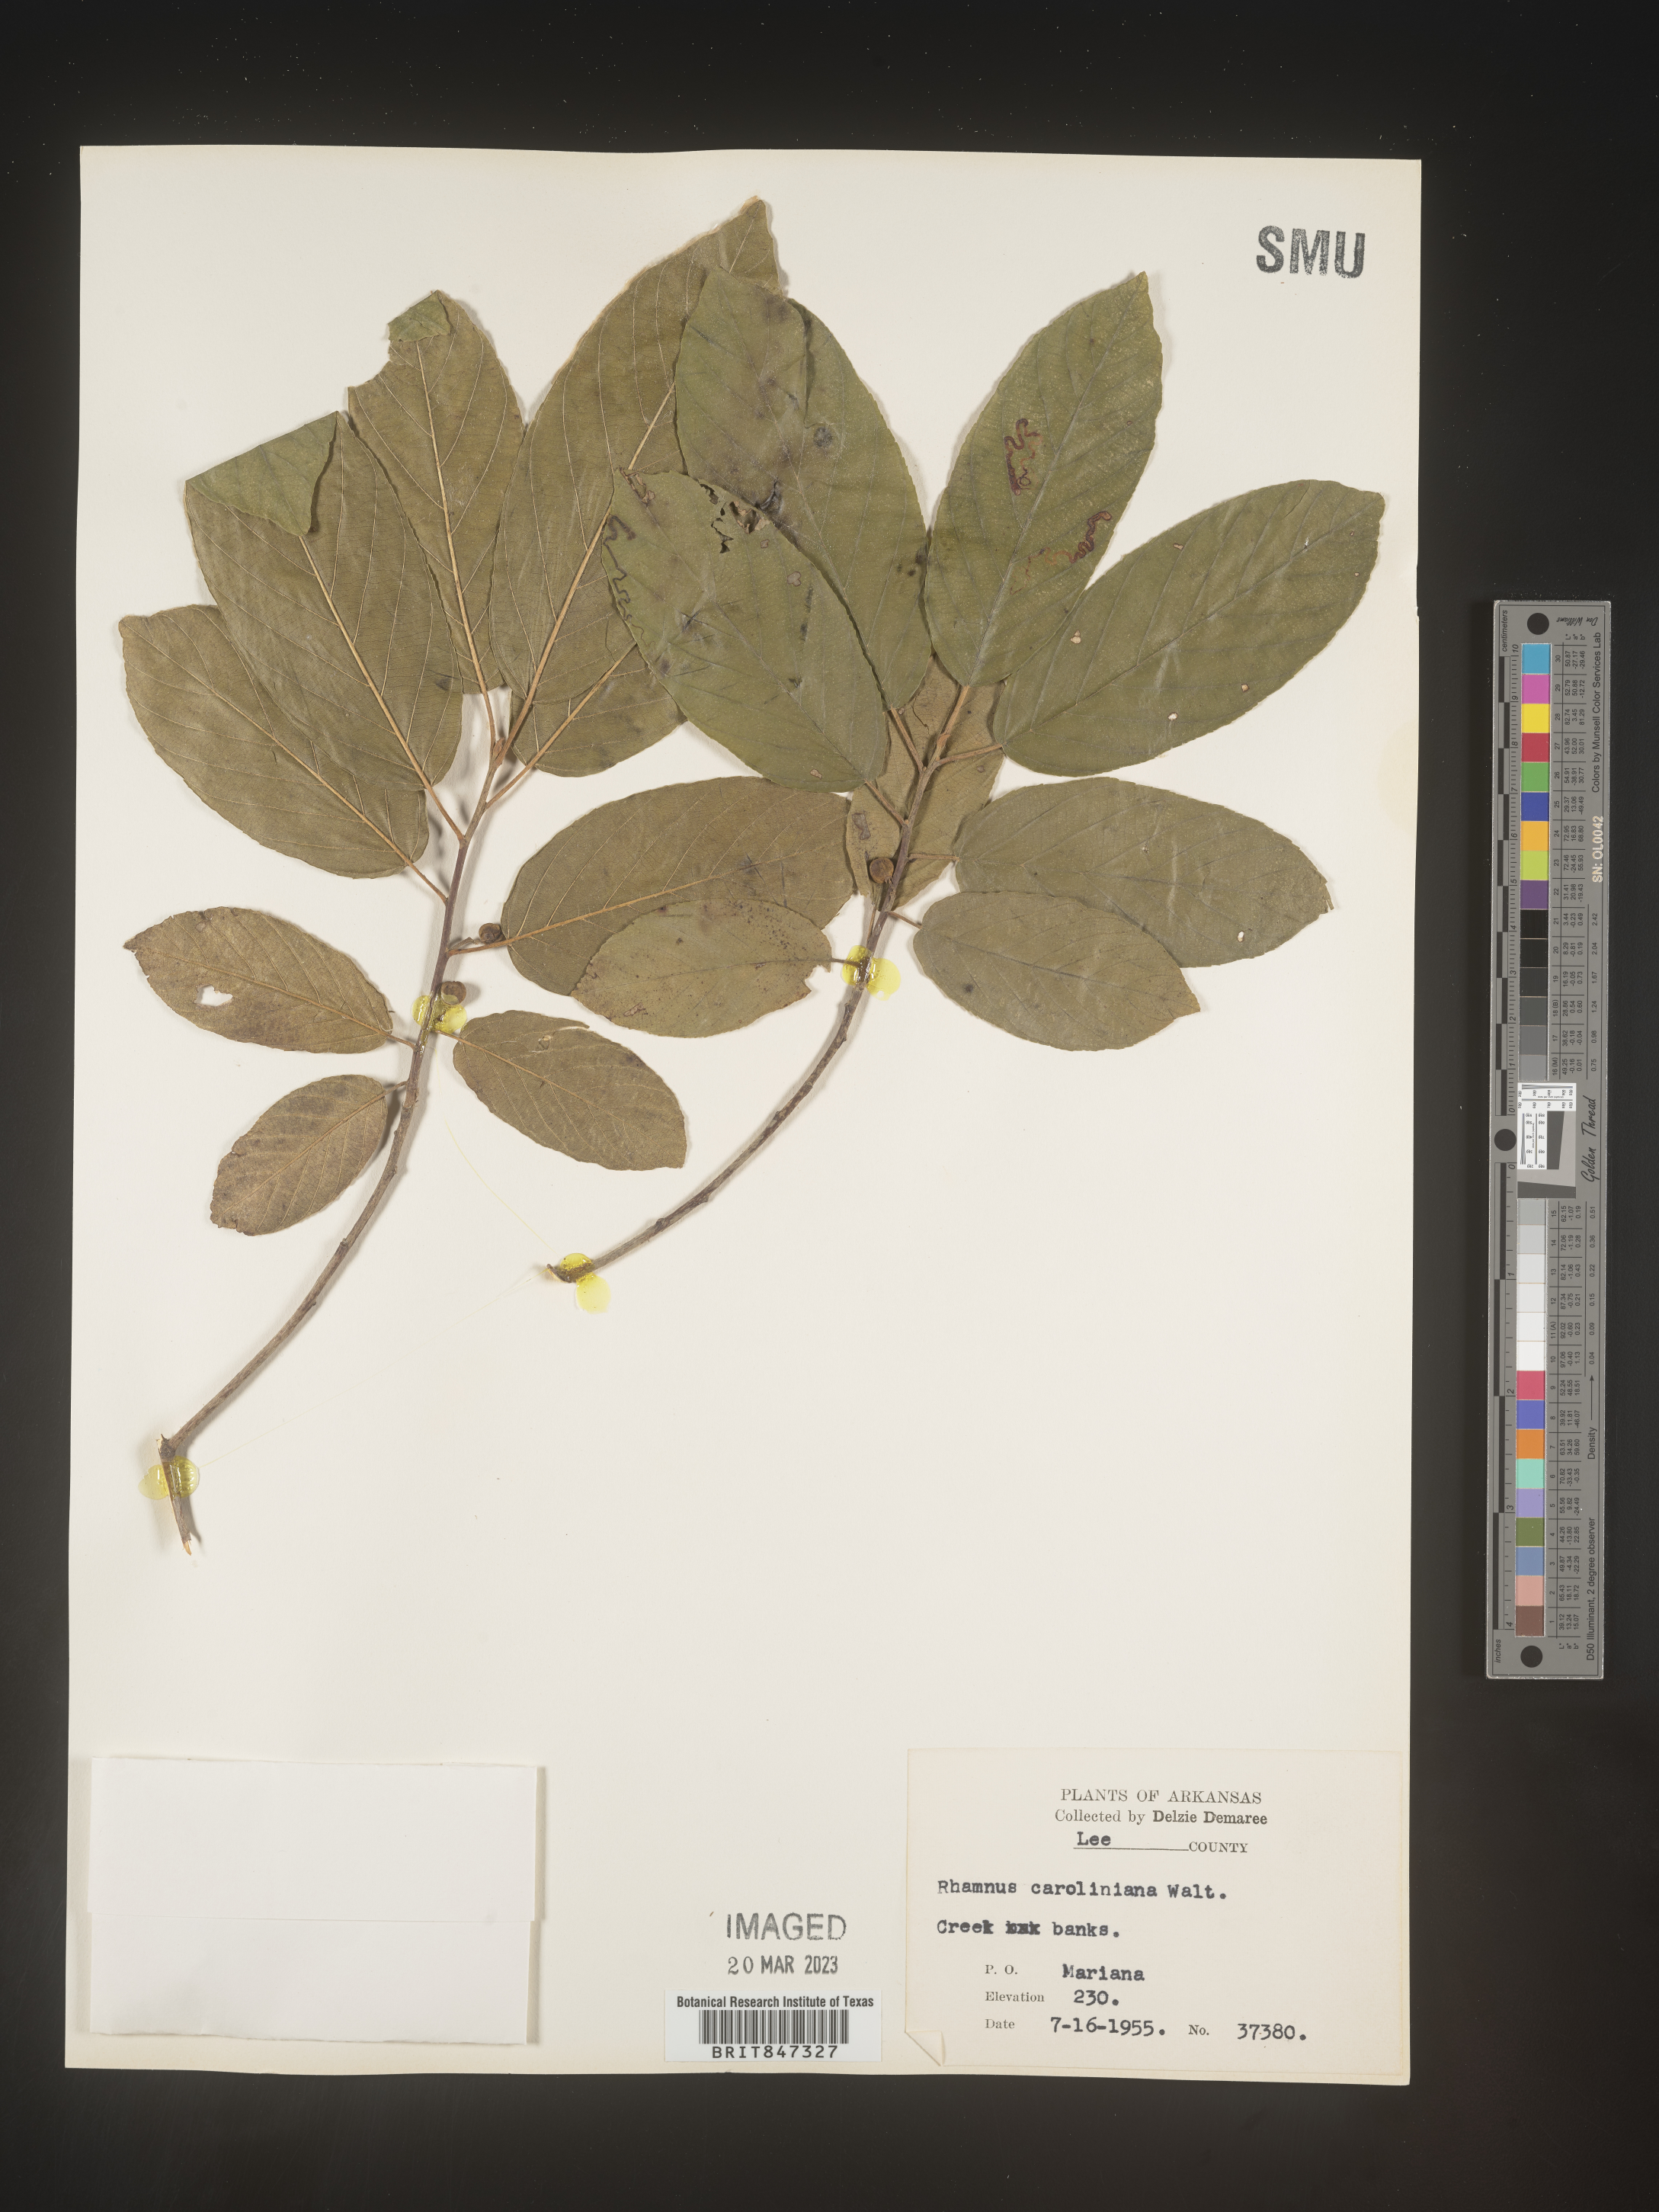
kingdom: Plantae
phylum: Tracheophyta
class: Magnoliopsida
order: Rosales
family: Rhamnaceae
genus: Frangula
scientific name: Frangula caroliniana
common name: Carolina buckthorn
